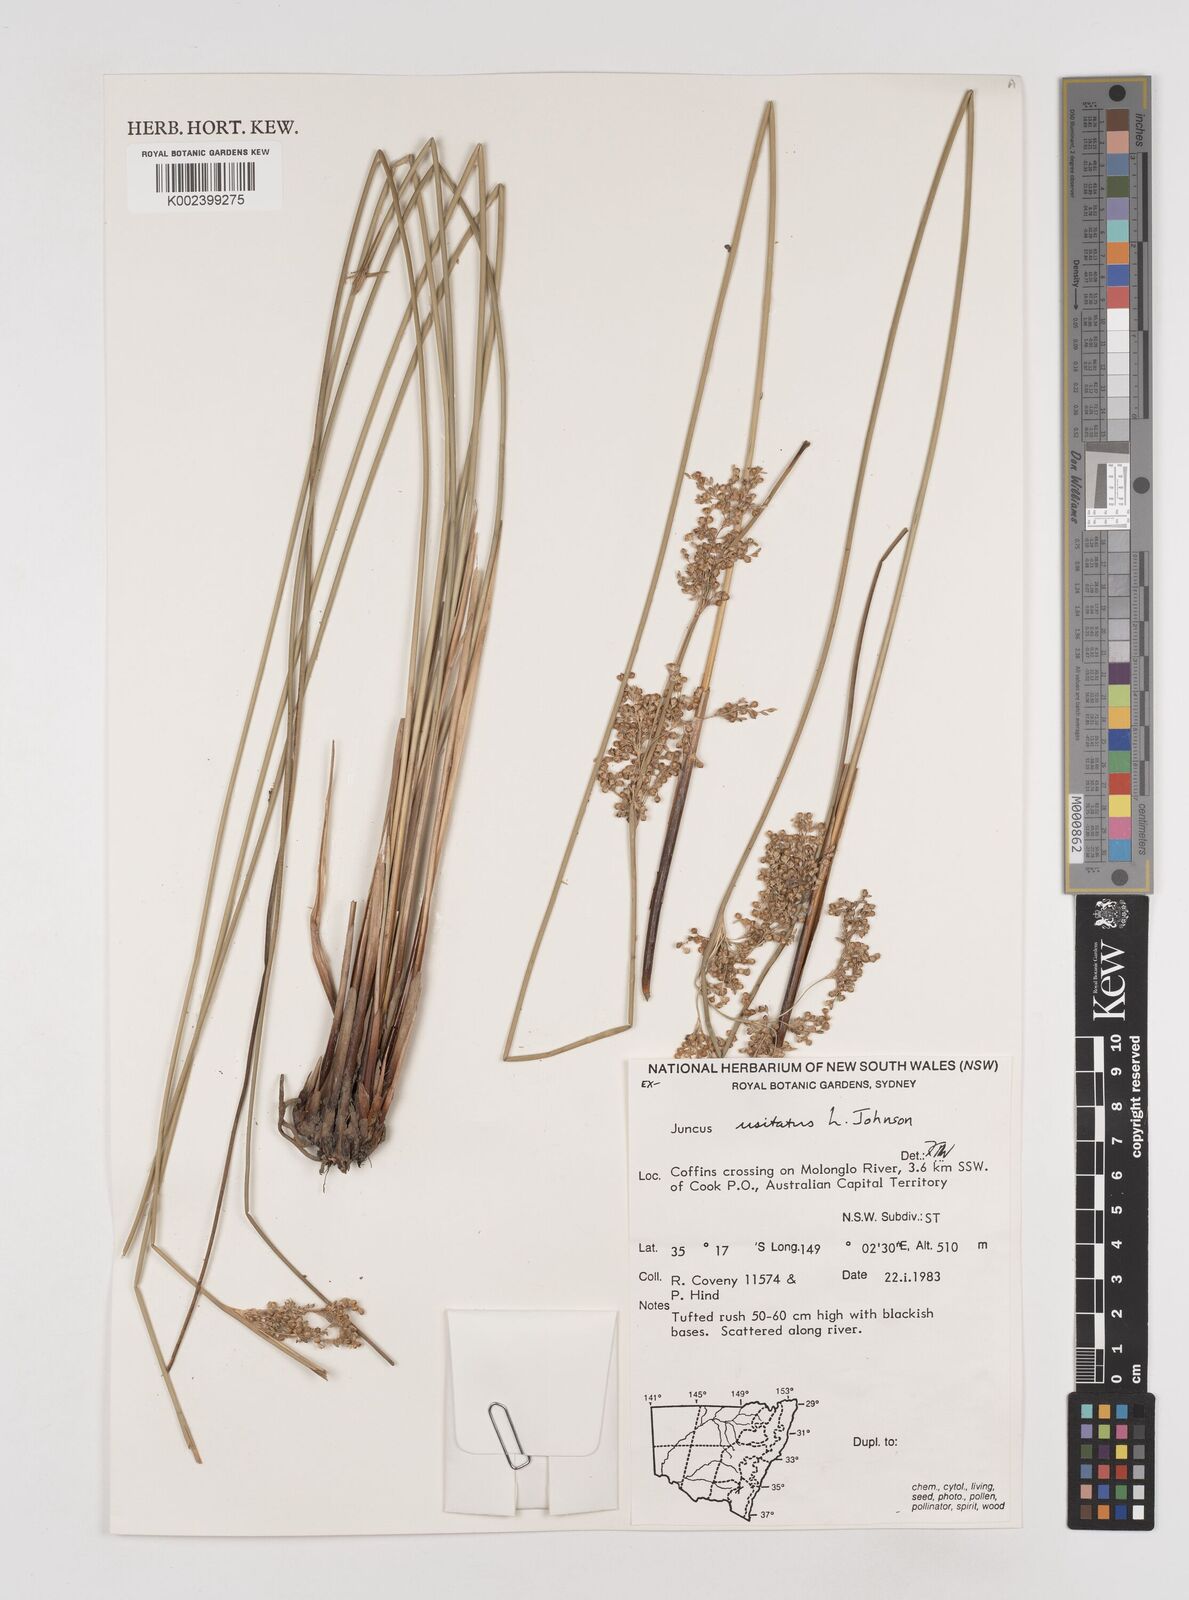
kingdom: Plantae
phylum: Tracheophyta
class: Liliopsida
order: Poales
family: Juncaceae
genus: Juncus
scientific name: Juncus usitatus
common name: Rush
